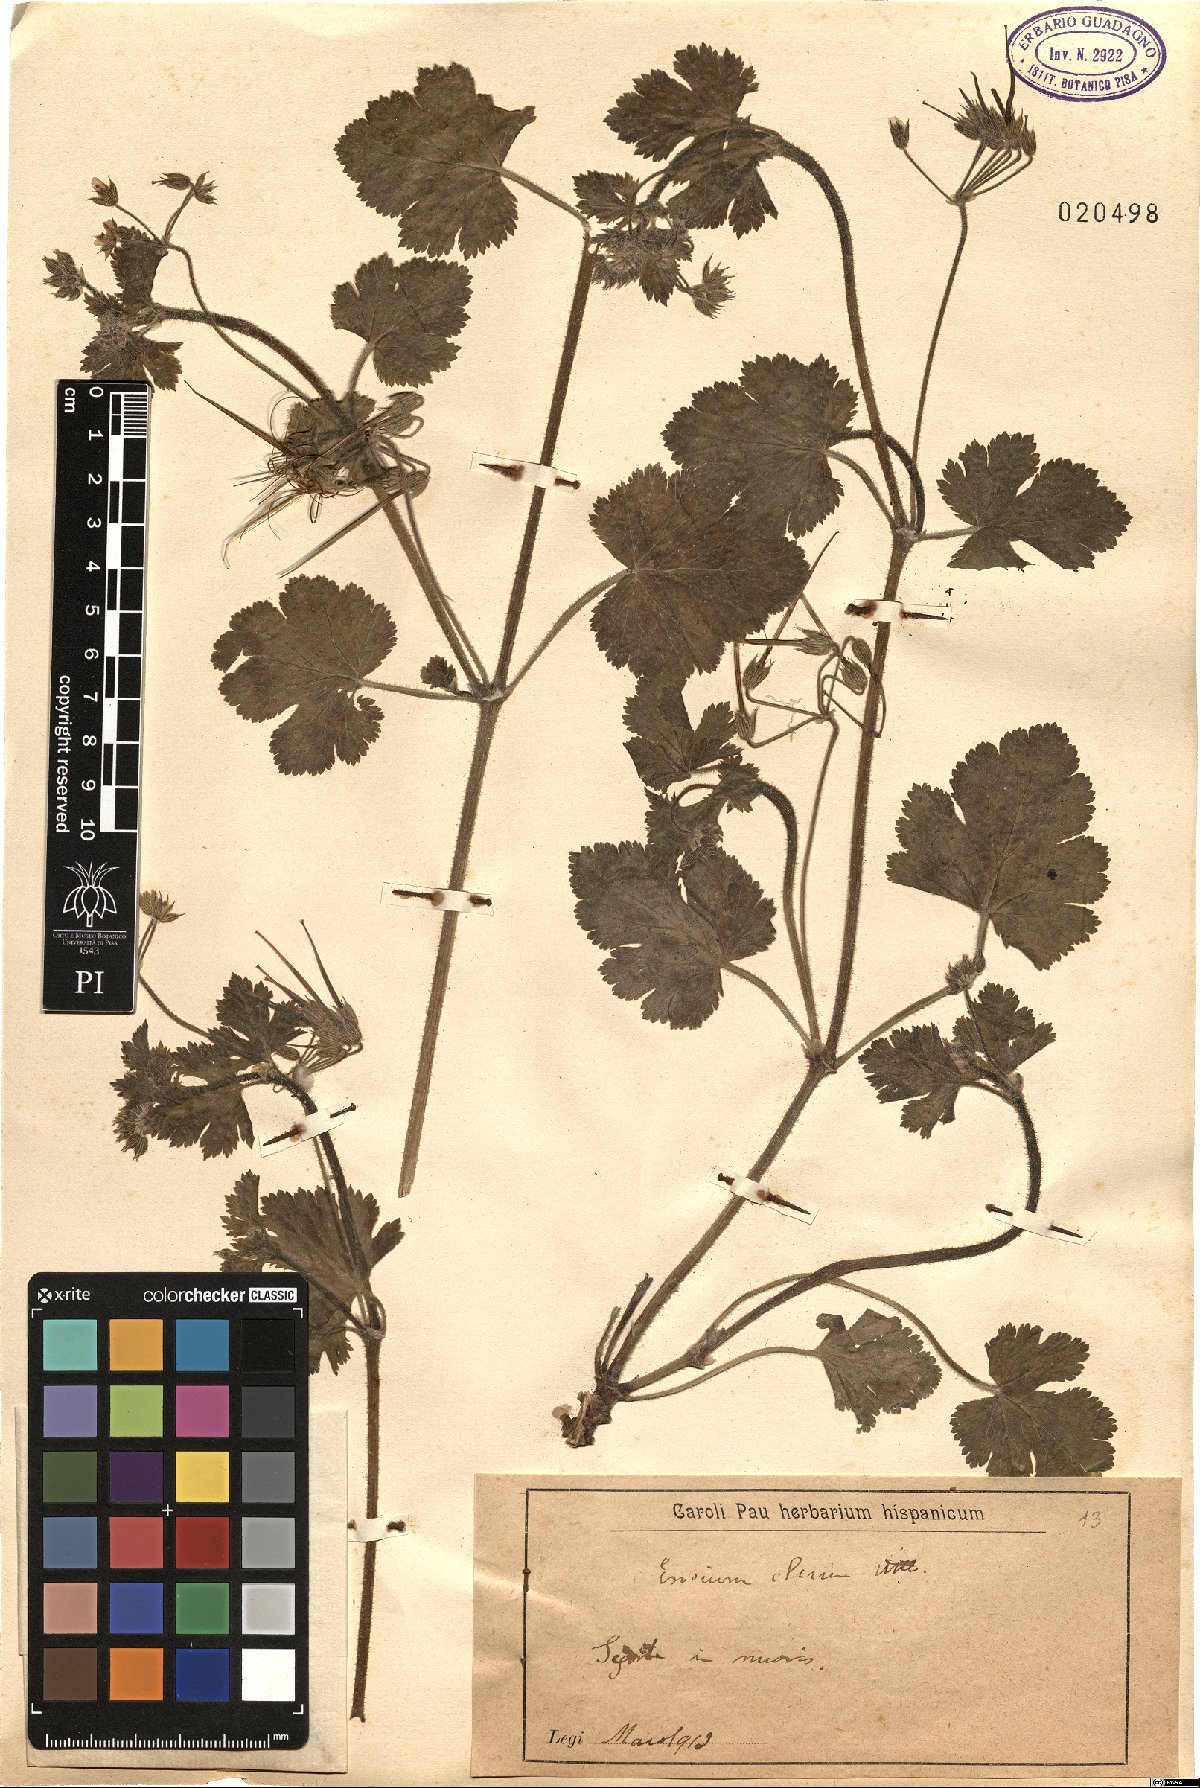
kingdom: Plantae
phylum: Tracheophyta
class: Magnoliopsida
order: Geraniales
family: Geraniaceae
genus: Erodium
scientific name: Erodium chium
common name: Three-lobed stork's-bill
